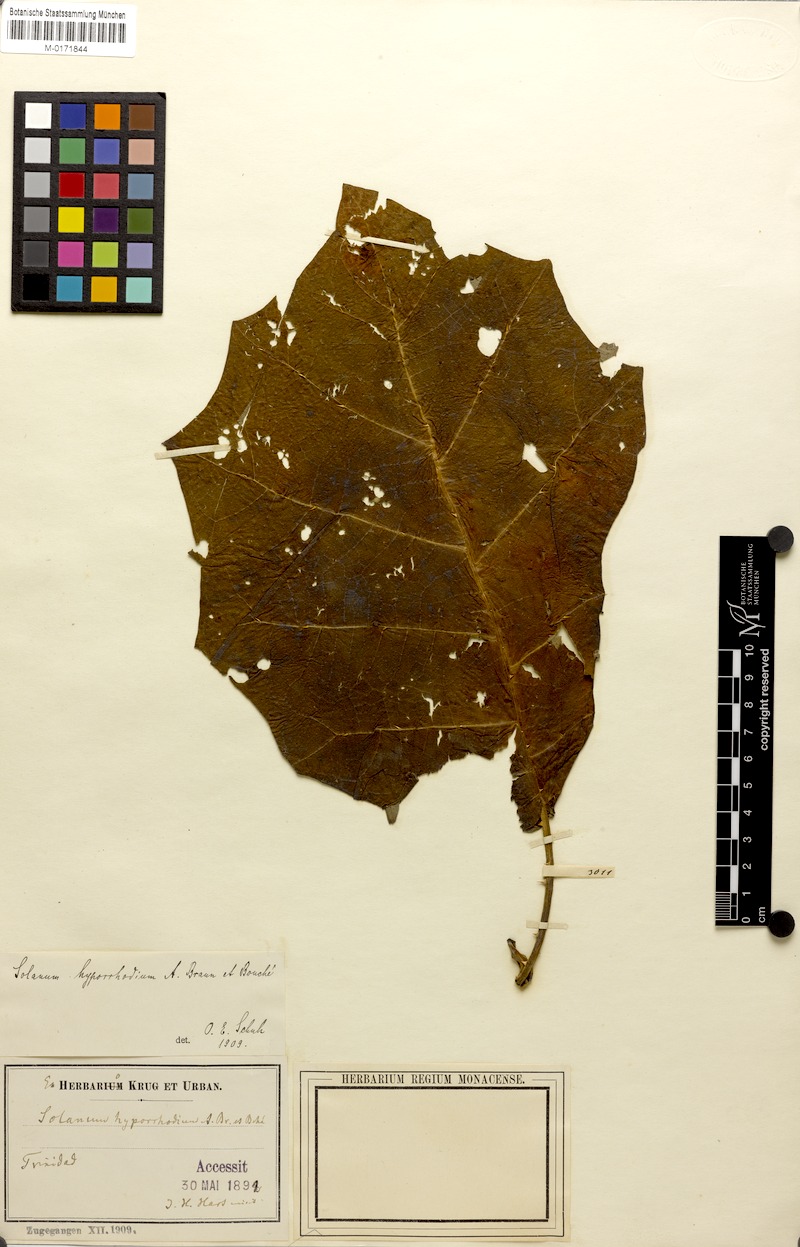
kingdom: Plantae
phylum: Tracheophyta
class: Magnoliopsida
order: Solanales
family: Solanaceae
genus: Solanum
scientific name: Solanum vestissimum
